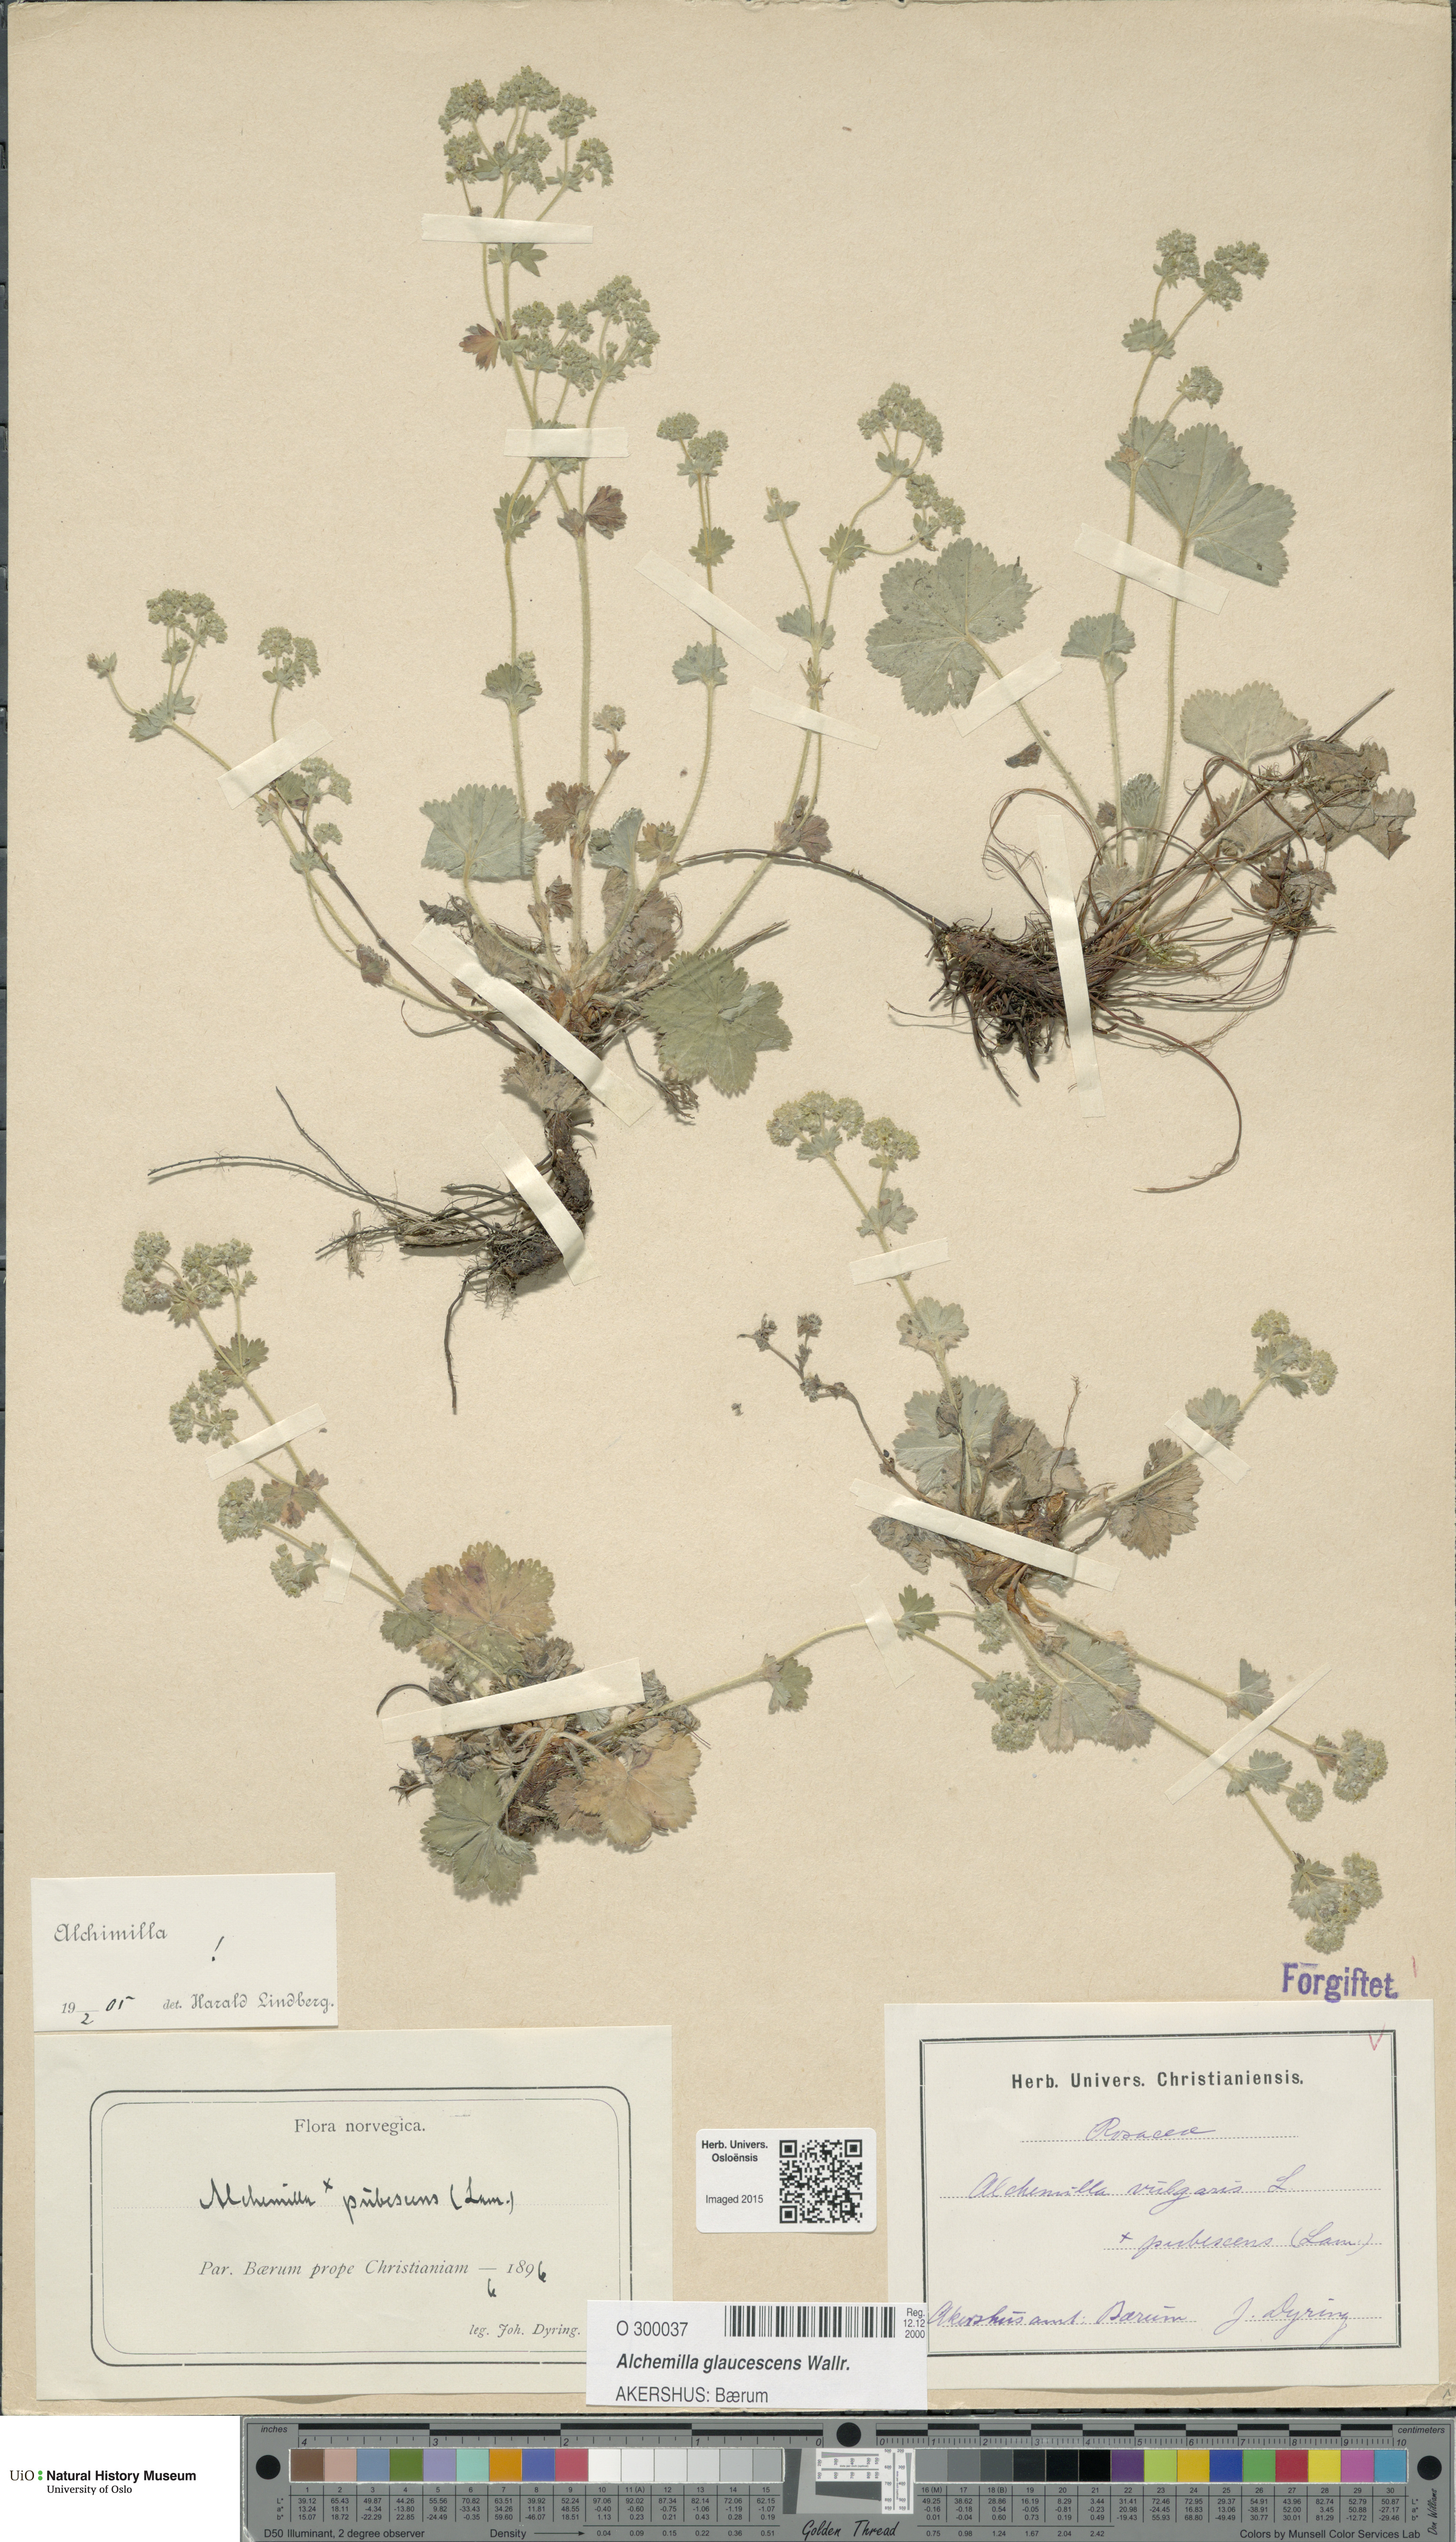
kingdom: Plantae
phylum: Tracheophyta
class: Magnoliopsida
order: Rosales
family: Rosaceae
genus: Alchemilla
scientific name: Alchemilla glaucescens
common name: Silky lady's mantle
